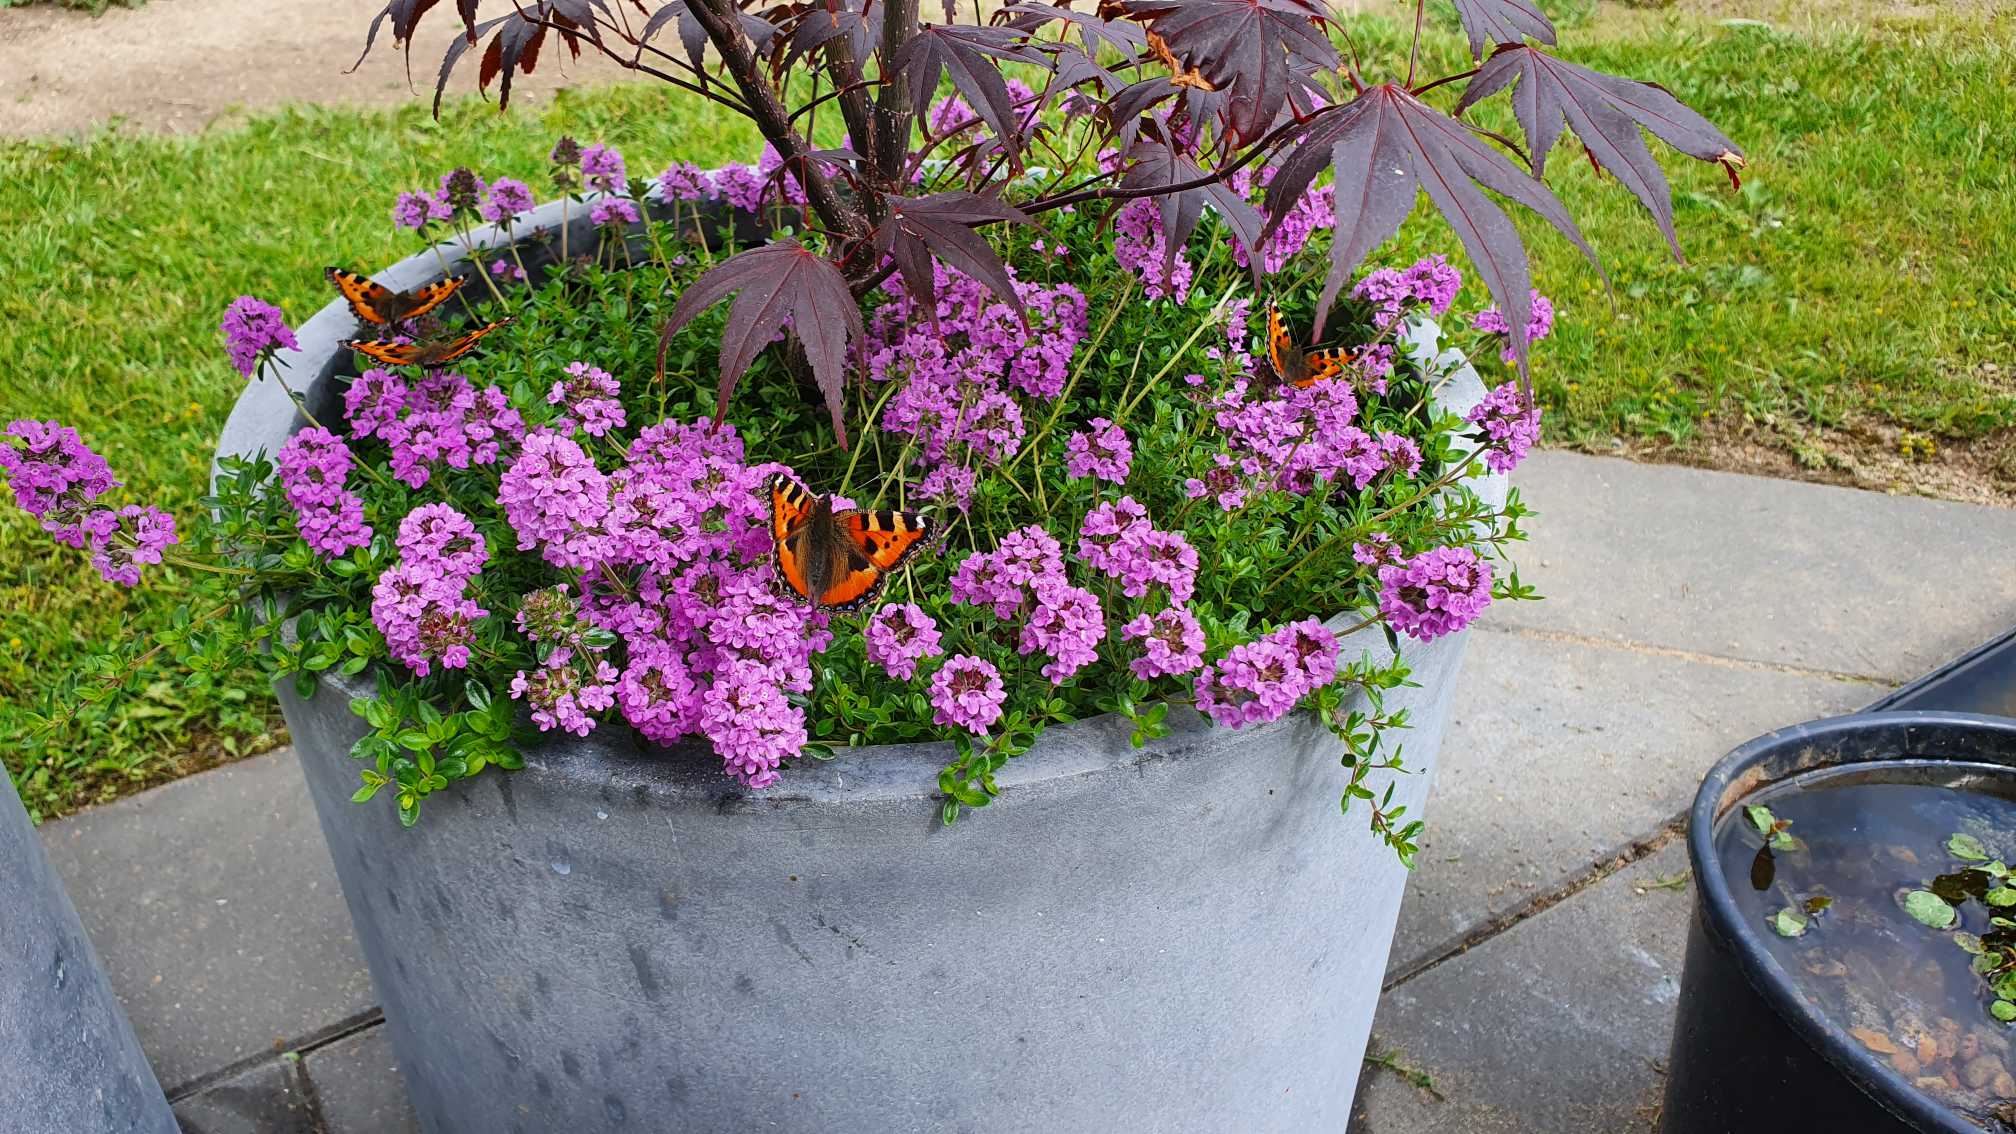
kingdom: Animalia
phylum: Arthropoda
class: Insecta
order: Lepidoptera
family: Nymphalidae
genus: Aglais
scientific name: Aglais urticae
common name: Nældens takvinge
